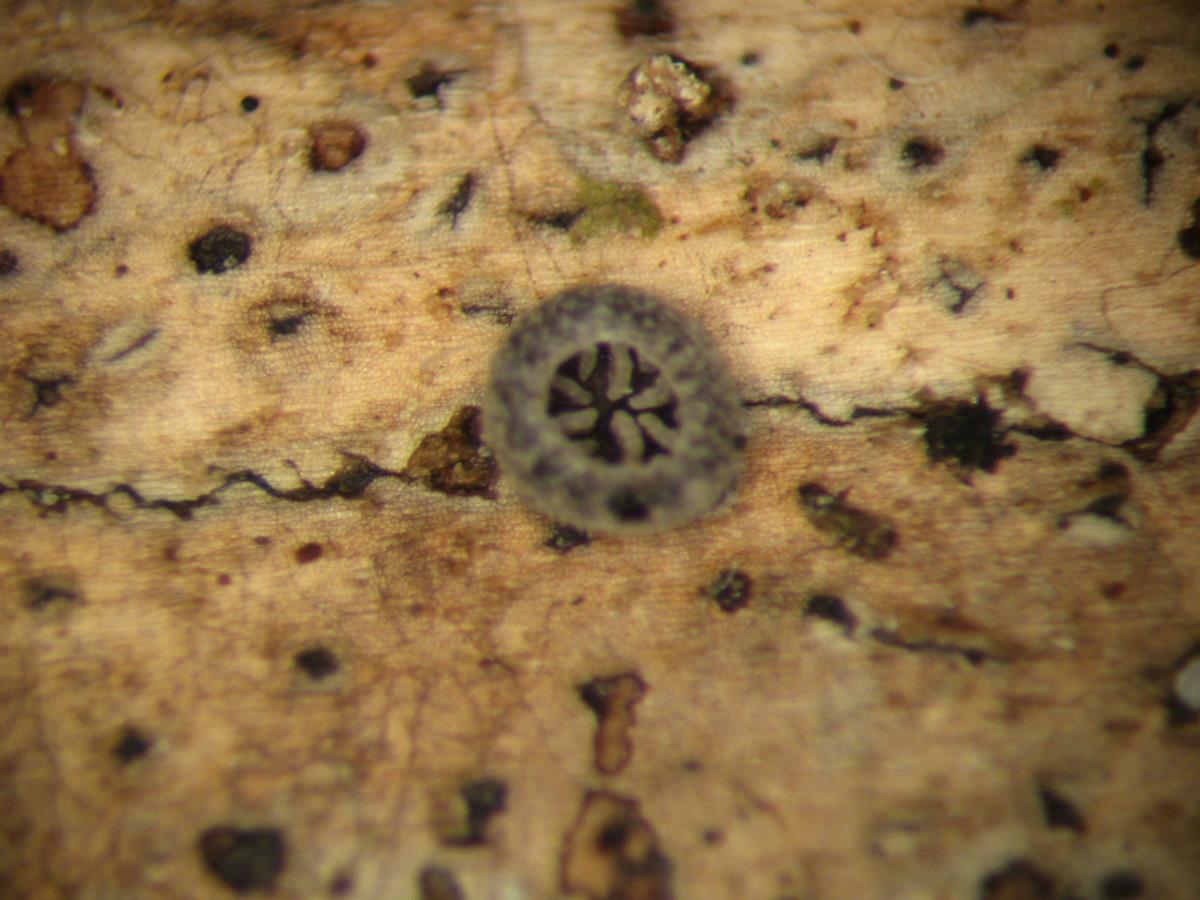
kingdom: Fungi
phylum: Basidiomycota
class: Agaricomycetes
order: Agaricales
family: Pleurotaceae
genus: Resupinatus
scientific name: Resupinatus trichotis
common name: Hairy oysterling
